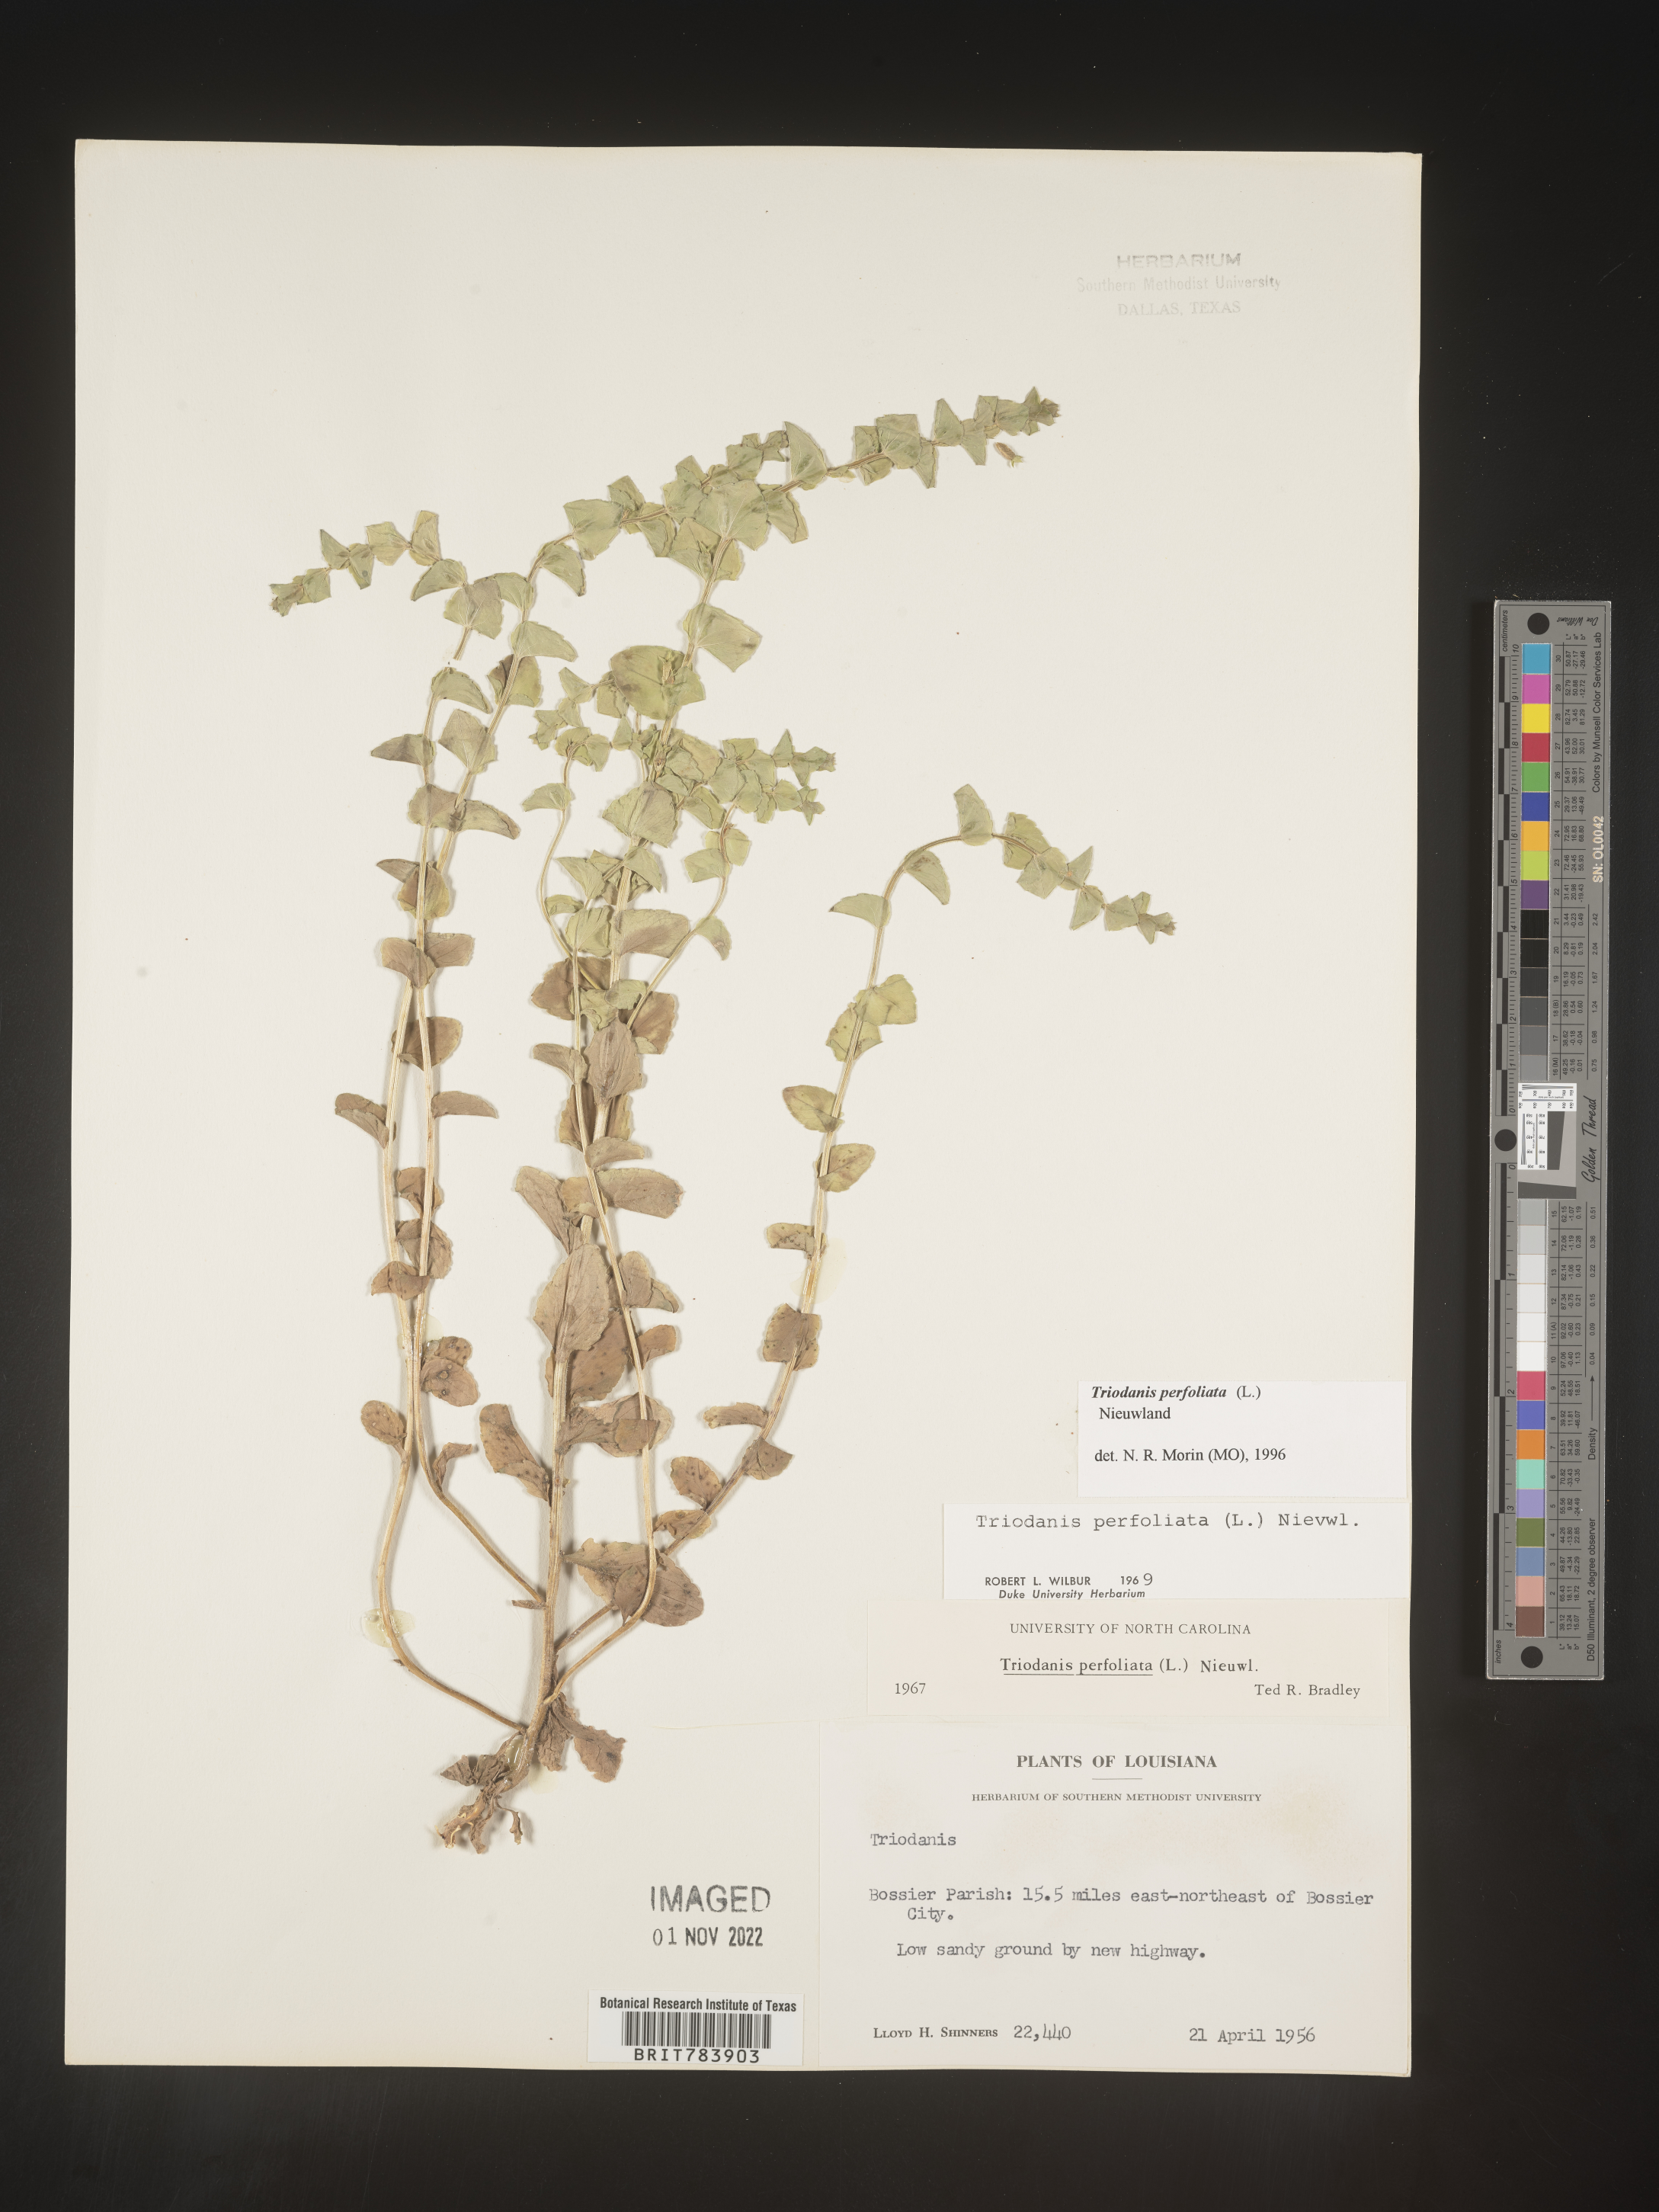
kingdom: Plantae
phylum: Tracheophyta
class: Magnoliopsida
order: Asterales
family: Campanulaceae
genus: Triodanis
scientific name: Triodanis perfoliata
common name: Clasping venus' looking-glass
